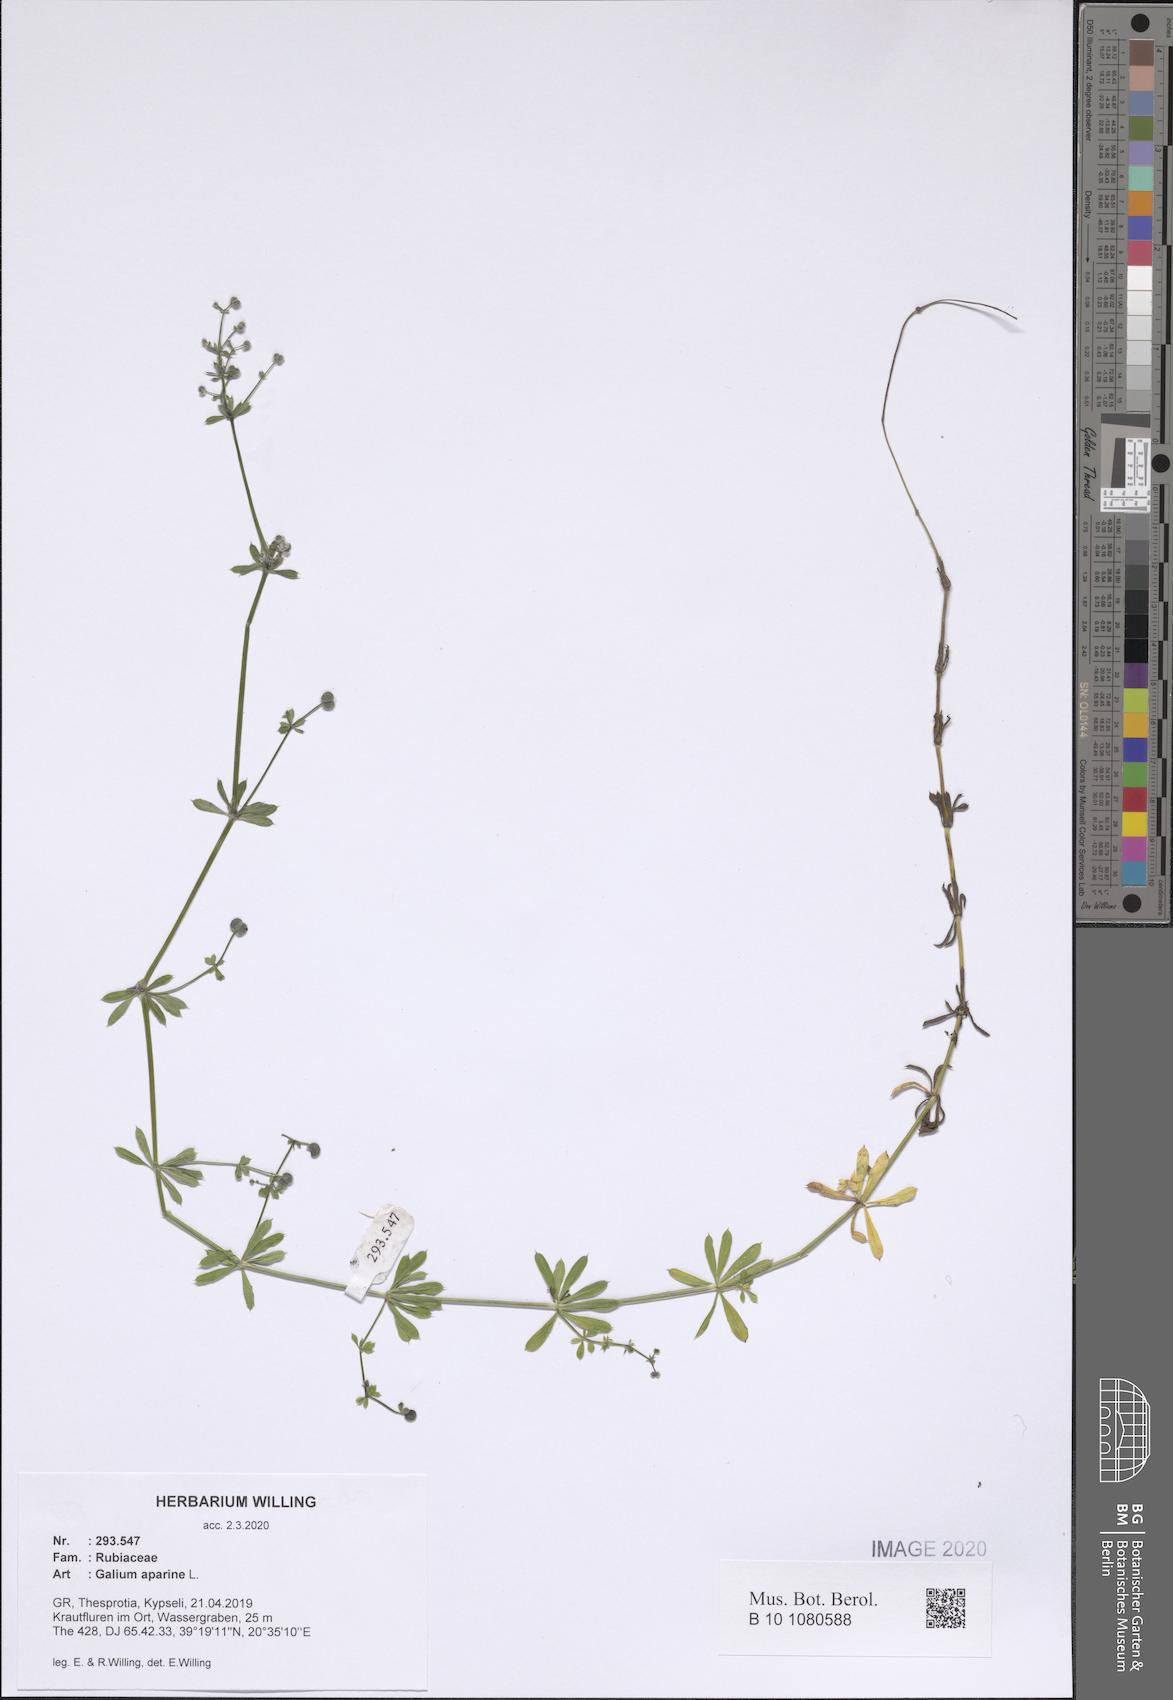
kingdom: Plantae
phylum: Tracheophyta
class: Magnoliopsida
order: Gentianales
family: Rubiaceae
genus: Galium
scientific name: Galium aparine
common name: Cleavers
